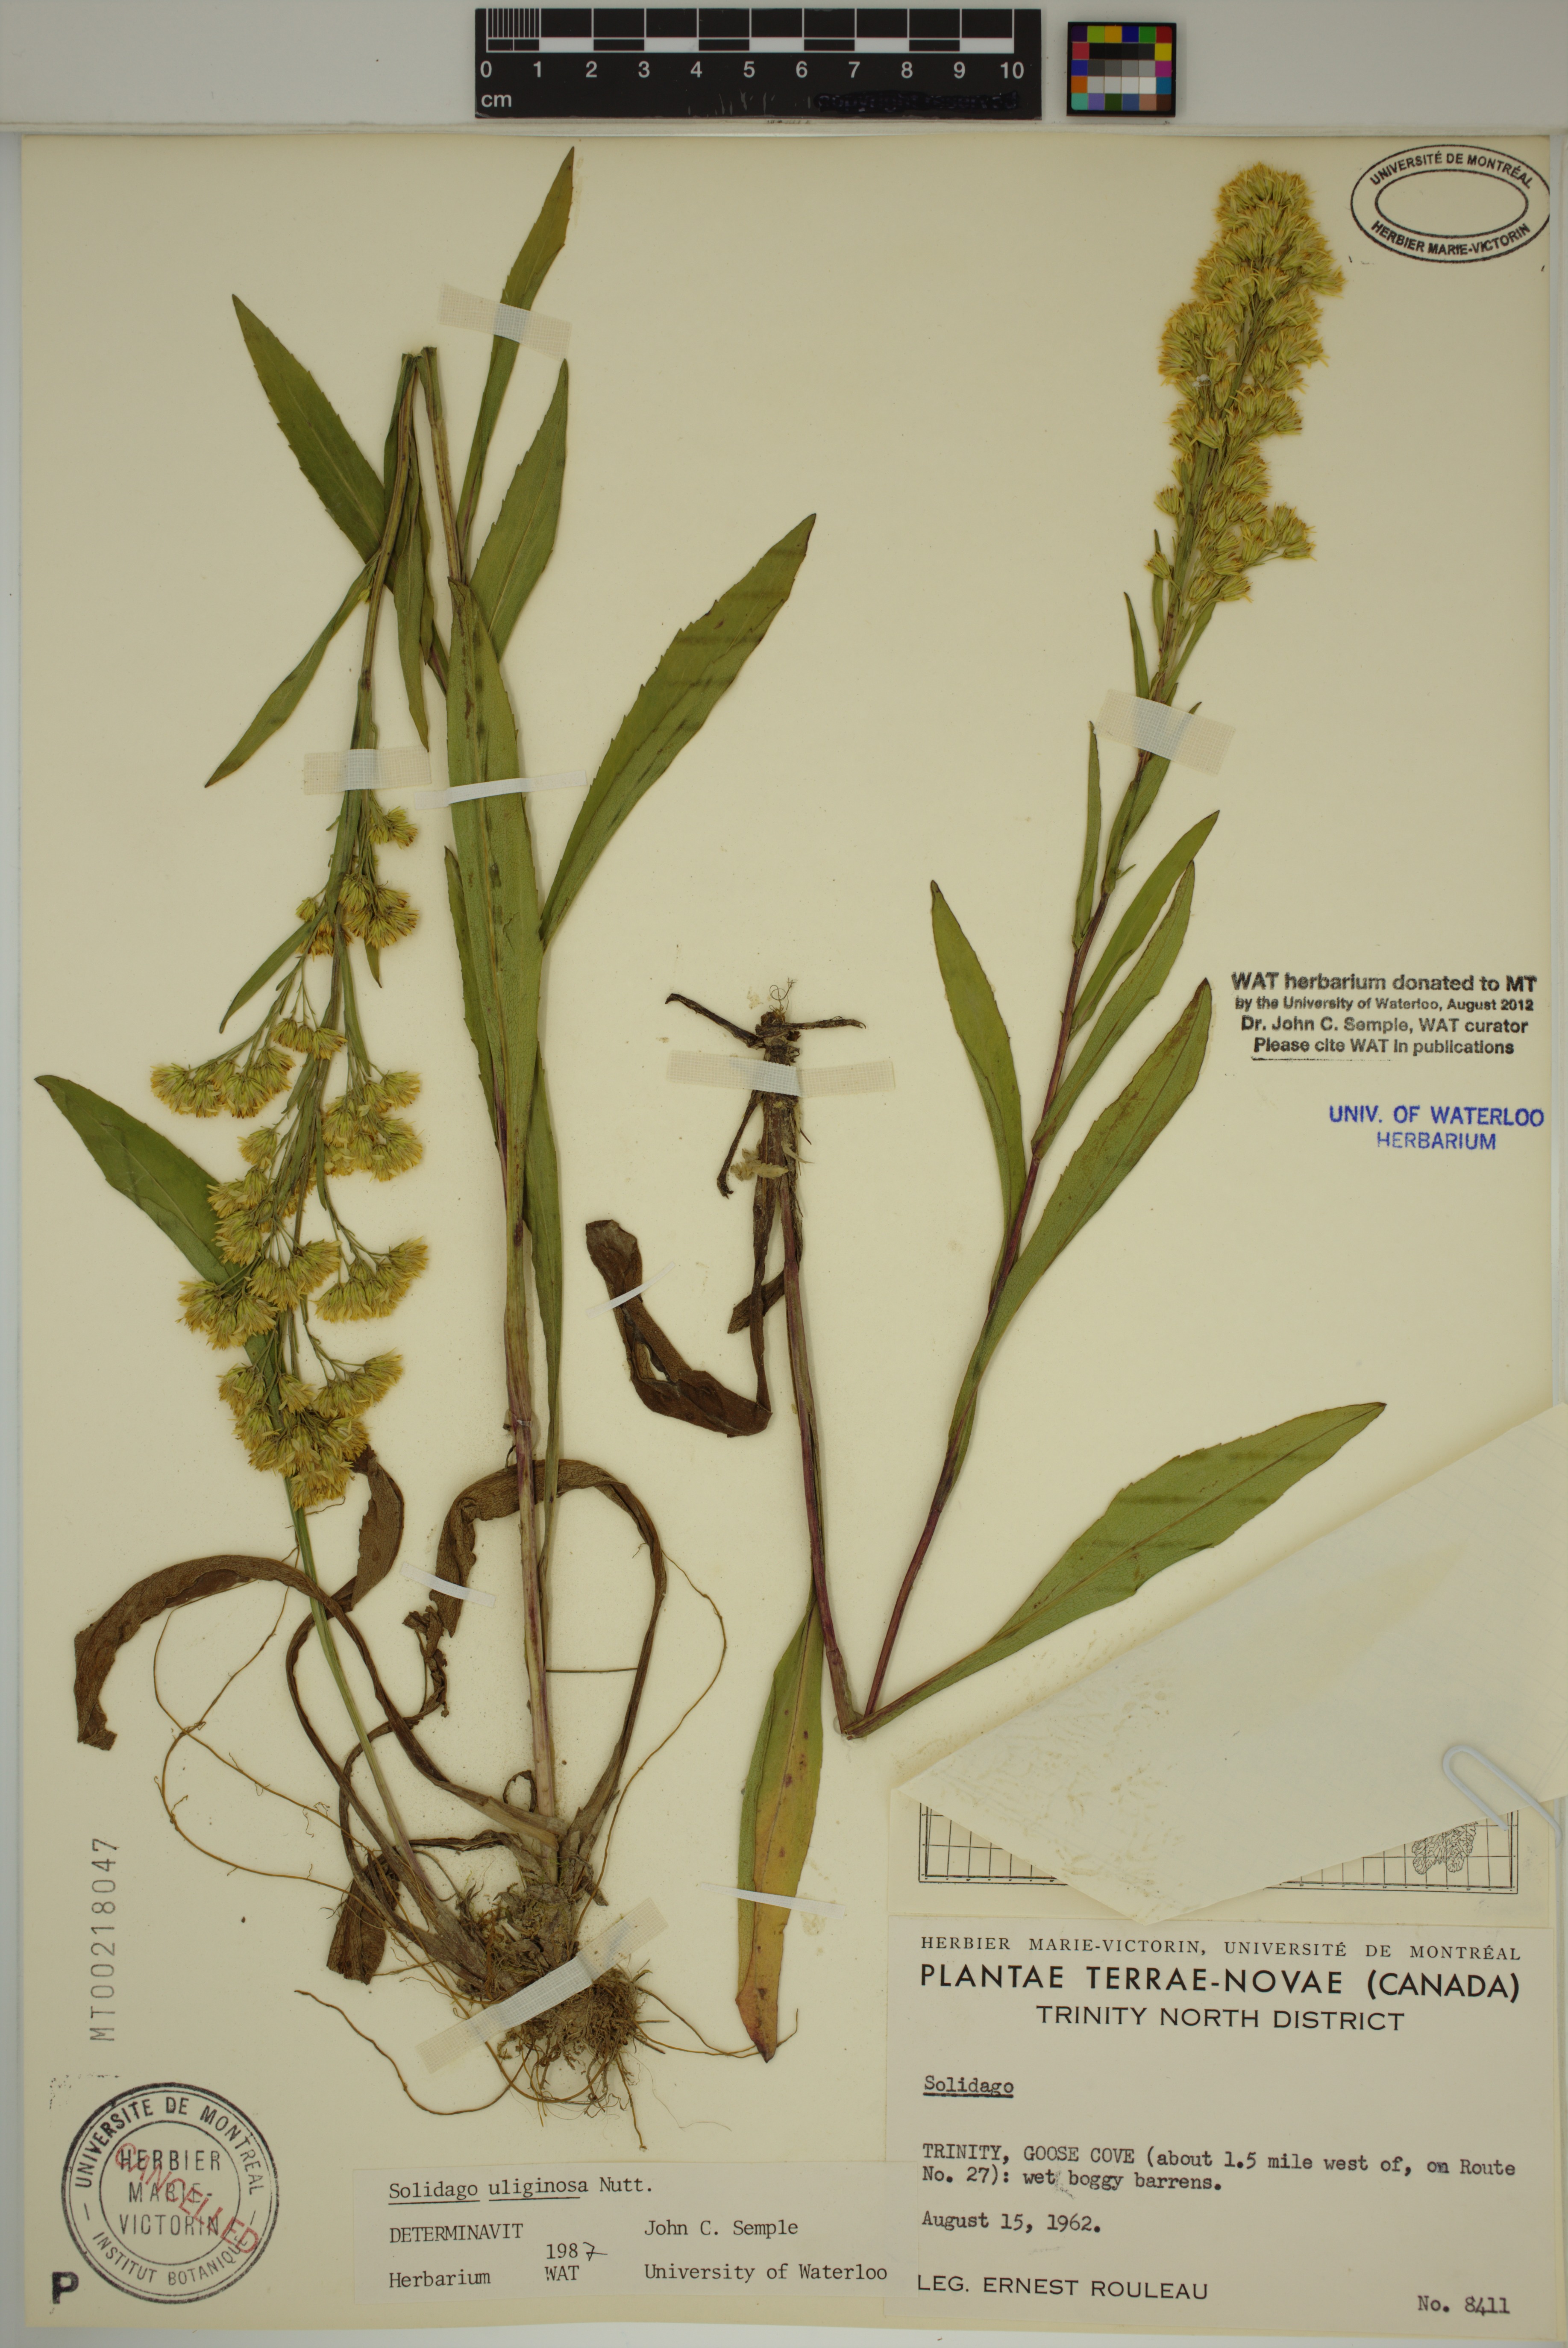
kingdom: Plantae
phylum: Tracheophyta
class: Magnoliopsida
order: Asterales
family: Asteraceae
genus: Solidago
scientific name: Solidago uliginosa
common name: Bog goldenrod
